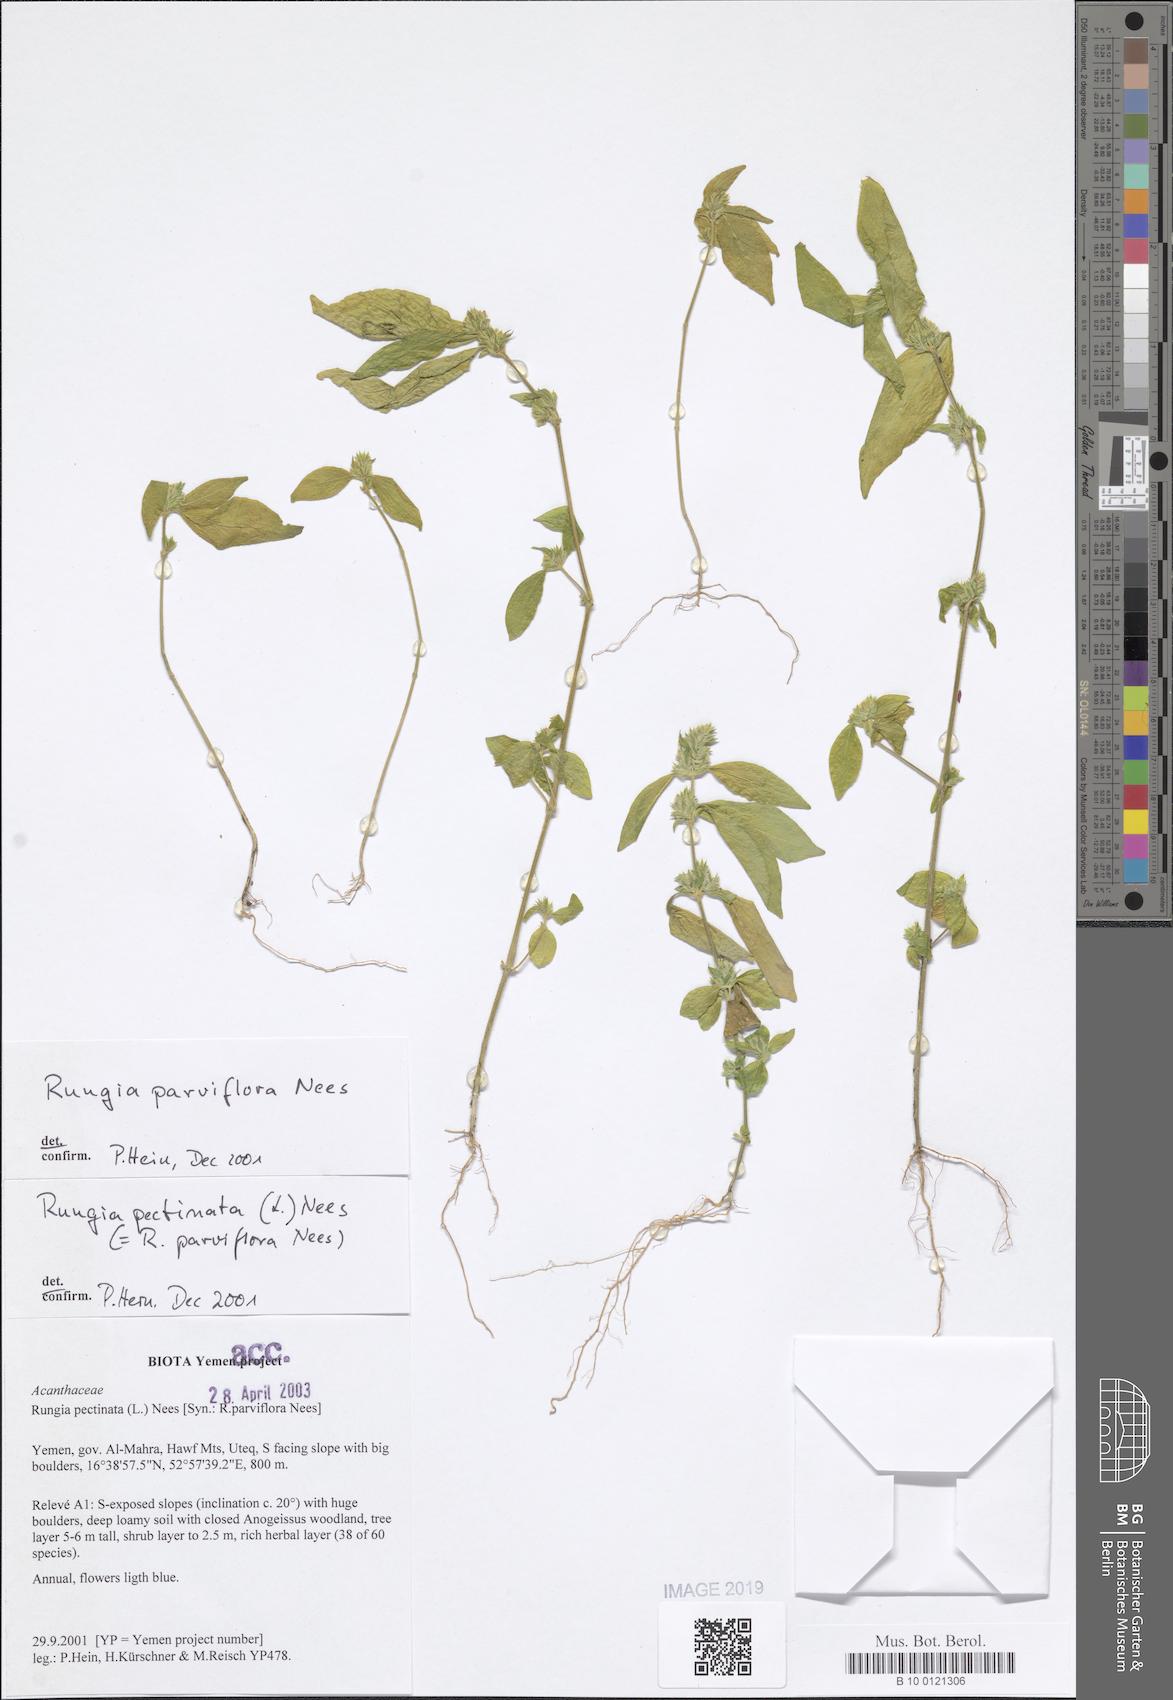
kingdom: Plantae
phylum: Tracheophyta
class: Magnoliopsida
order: Lamiales
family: Acanthaceae
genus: Rungia
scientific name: Rungia pectinata
